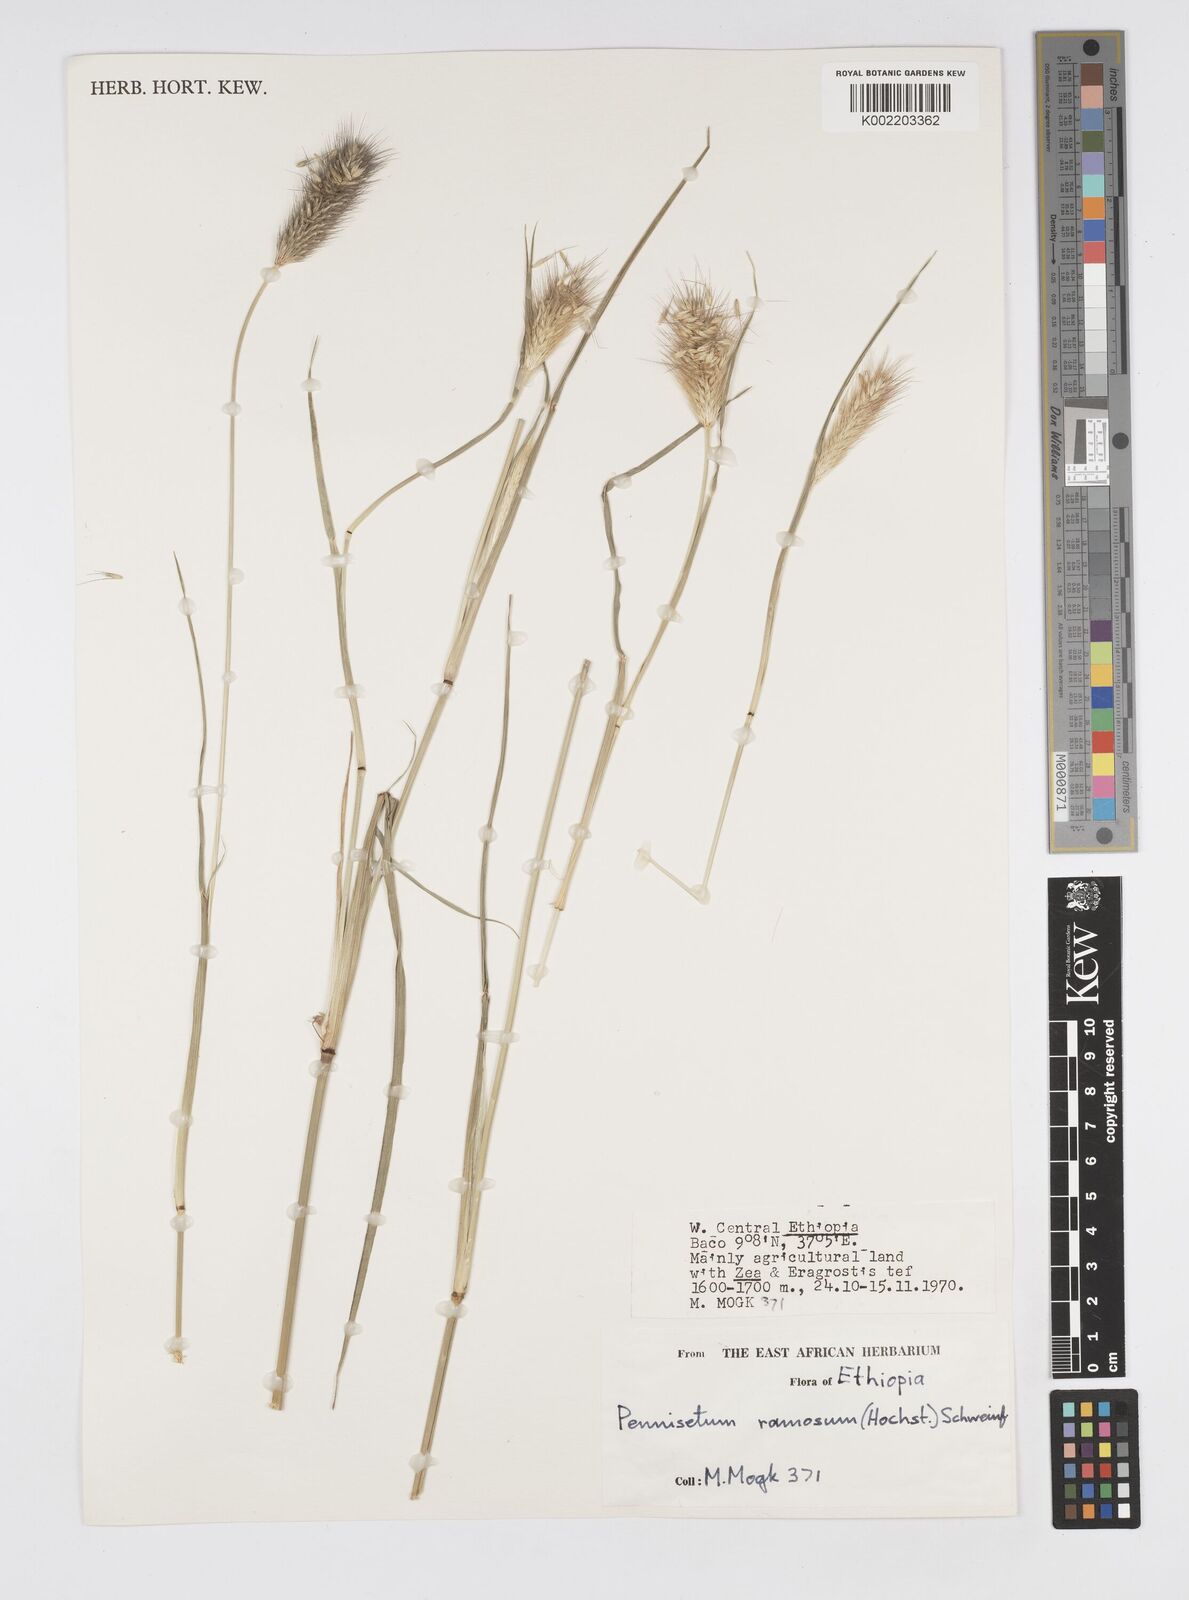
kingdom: Plantae
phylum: Tracheophyta
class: Liliopsida
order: Poales
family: Poaceae
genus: Cenchrus
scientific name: Cenchrus ramosus
